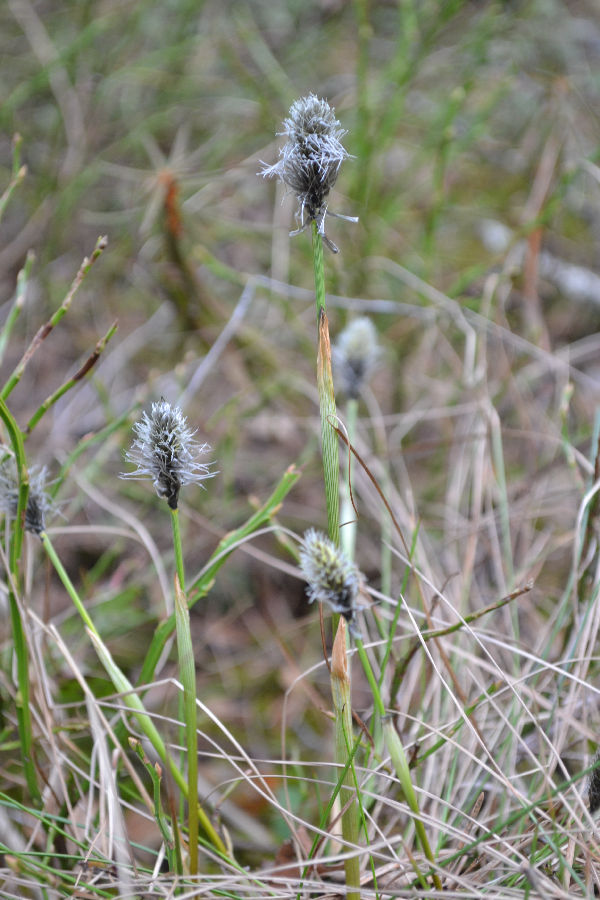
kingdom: Plantae
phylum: Tracheophyta
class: Liliopsida
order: Poales
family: Cyperaceae
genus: Eriophorum
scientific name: Eriophorum vaginatum
